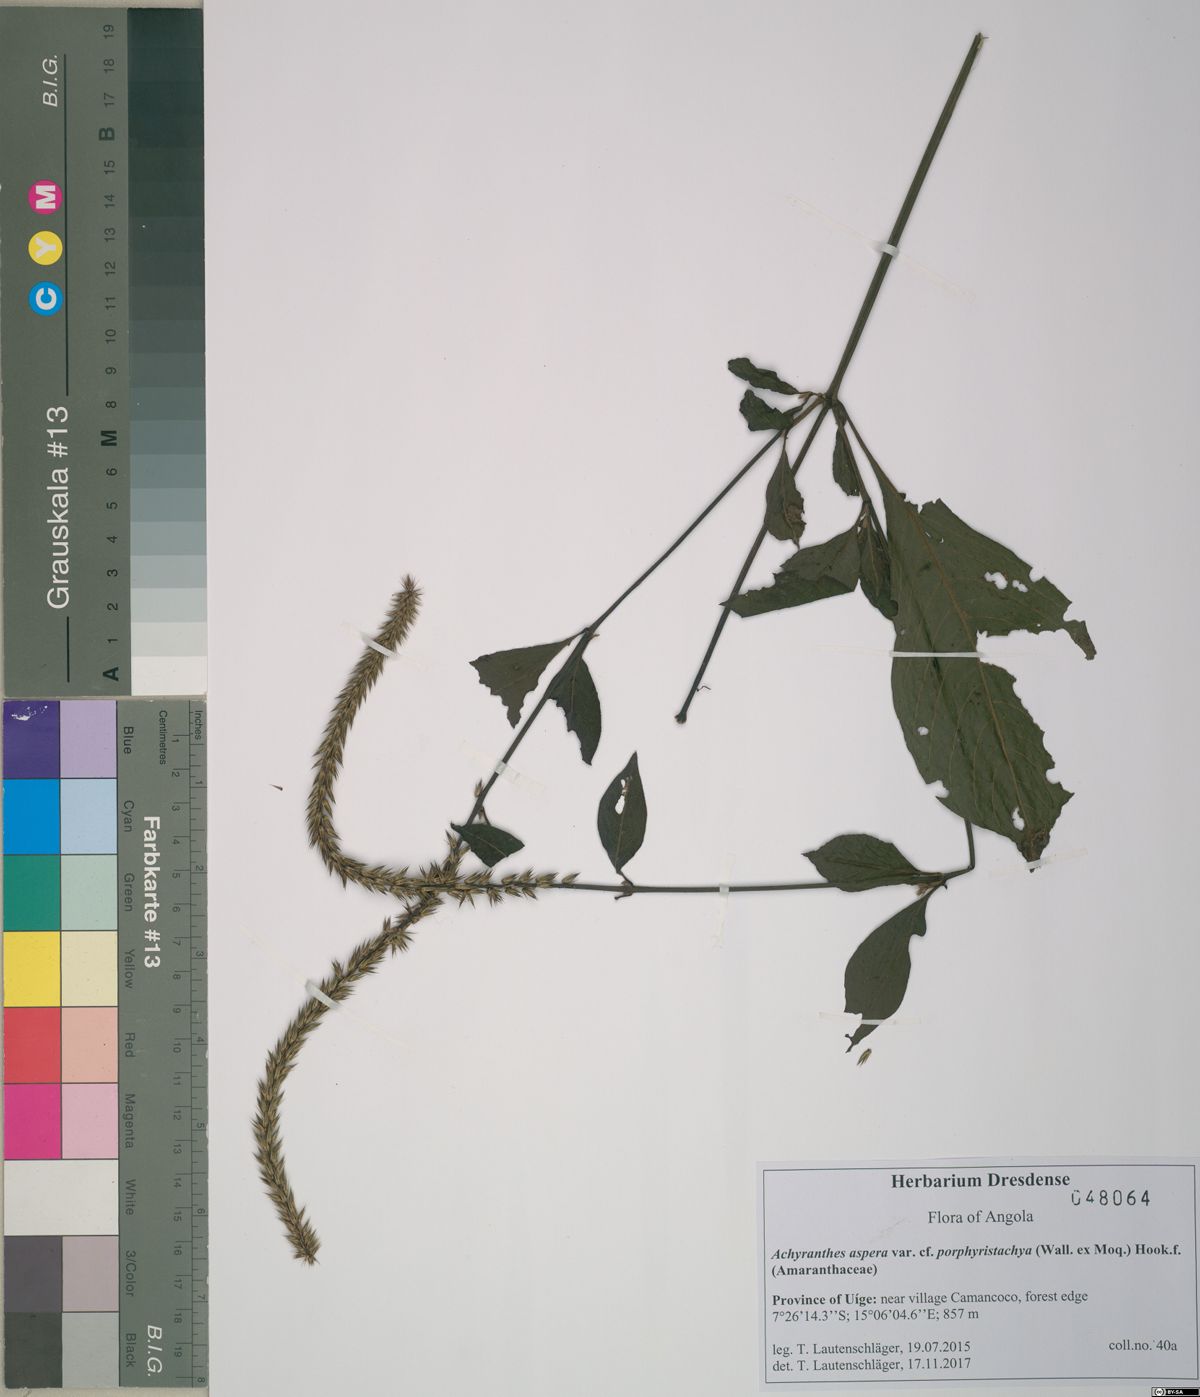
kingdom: Plantae
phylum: Tracheophyta
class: Magnoliopsida
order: Caryophyllales
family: Amaranthaceae
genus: Achyranthes
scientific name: Achyranthes coynei
